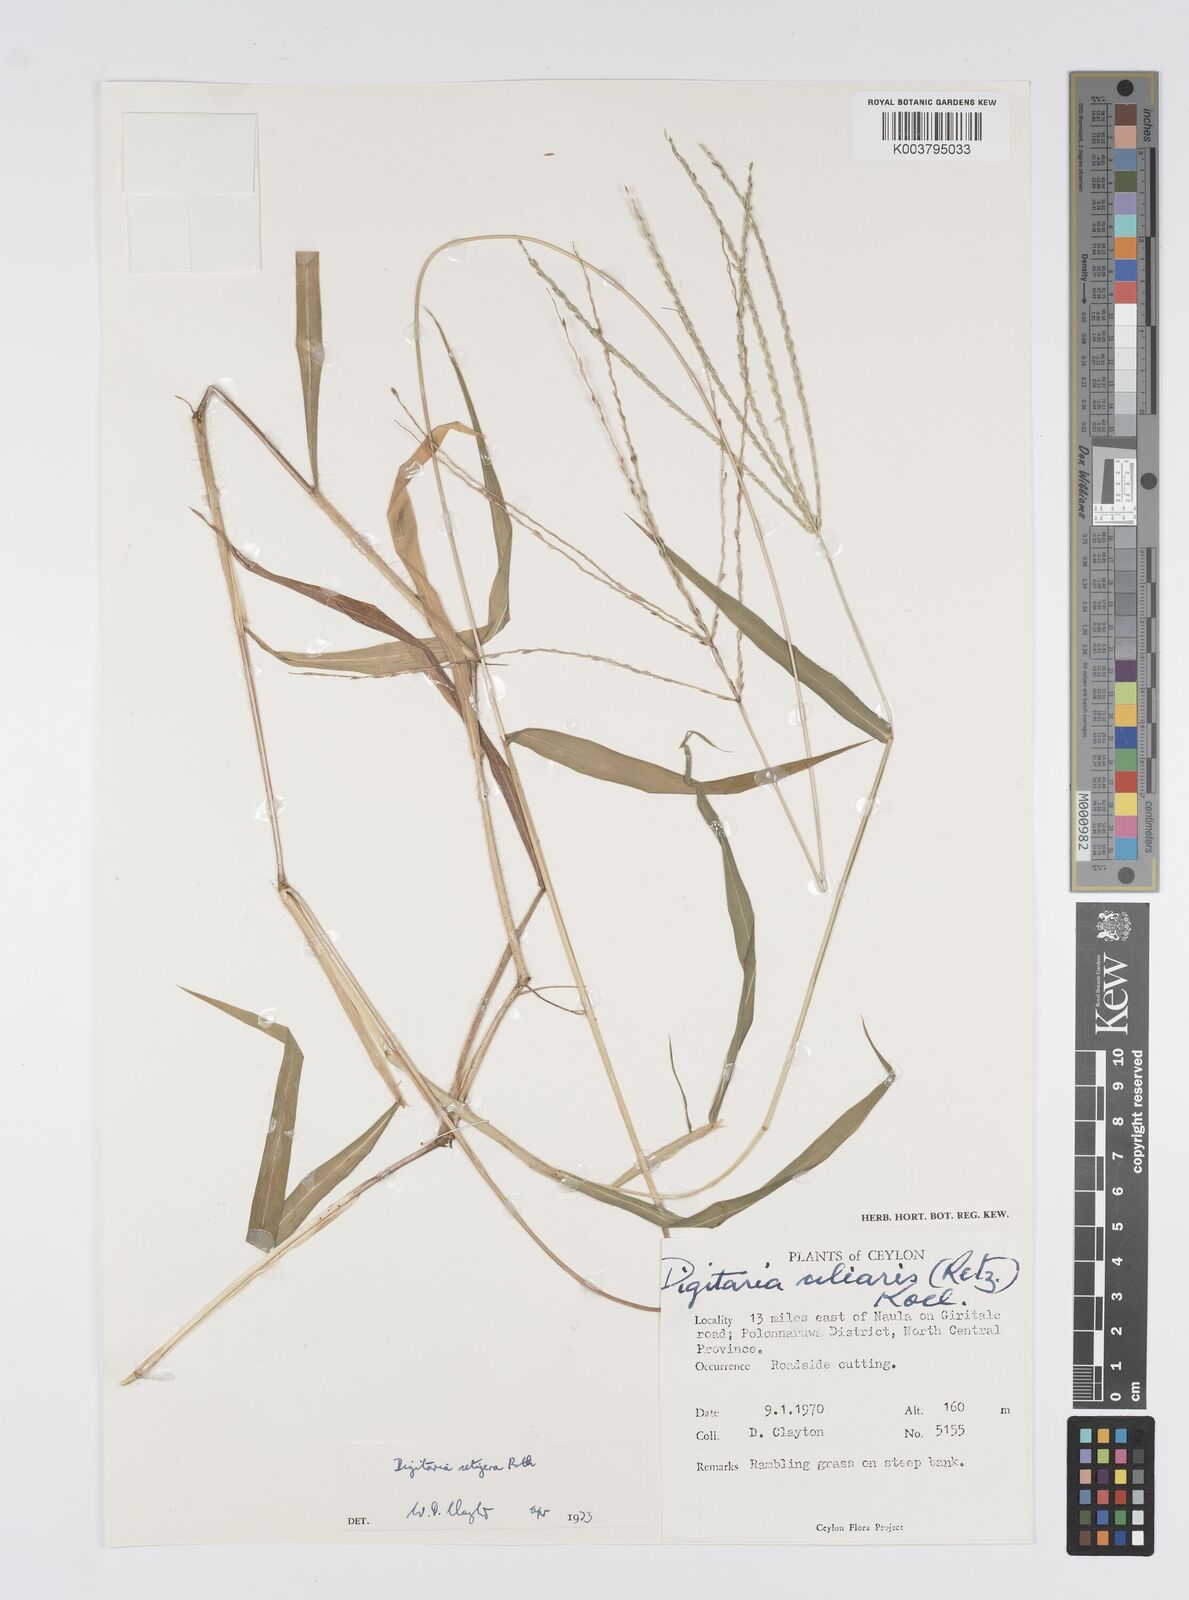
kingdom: Plantae
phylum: Tracheophyta
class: Liliopsida
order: Poales
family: Poaceae
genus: Digitaria
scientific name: Digitaria setigera
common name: East indian crabgrass
